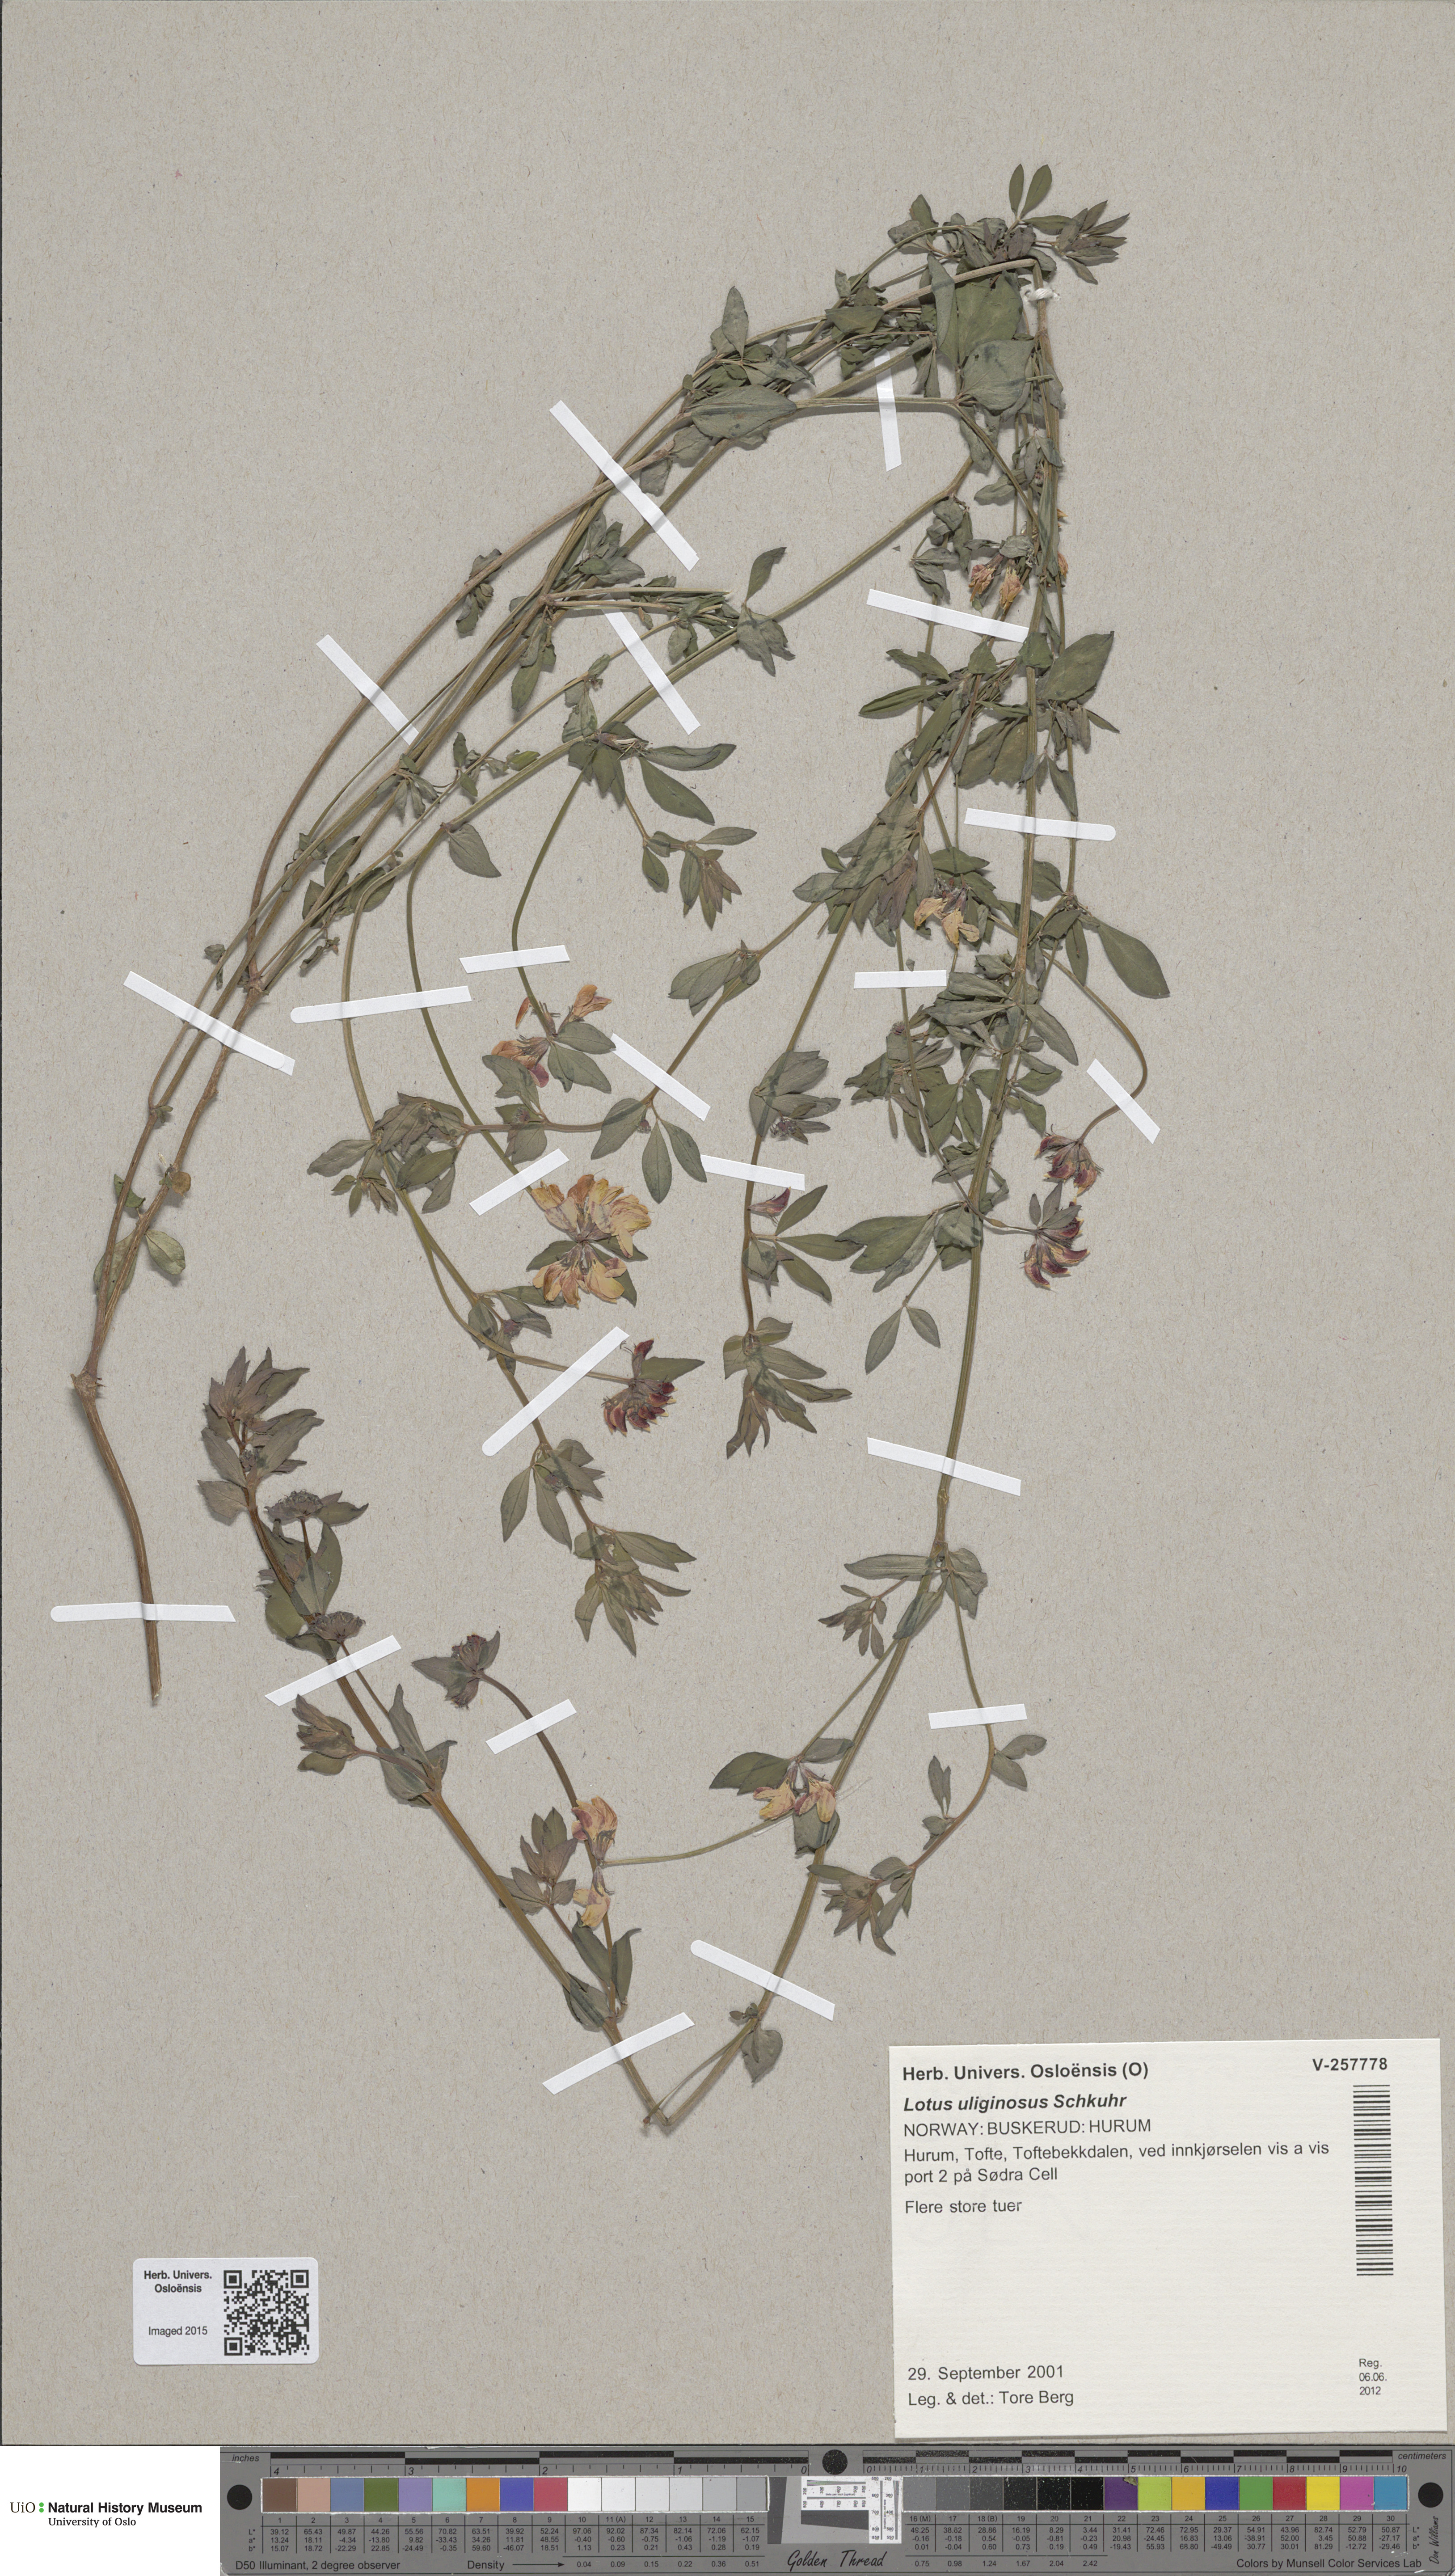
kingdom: Plantae
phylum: Tracheophyta
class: Magnoliopsida
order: Fabales
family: Fabaceae
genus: Lotus
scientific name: Lotus pedunculatus
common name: Greater birdsfoot-trefoil
